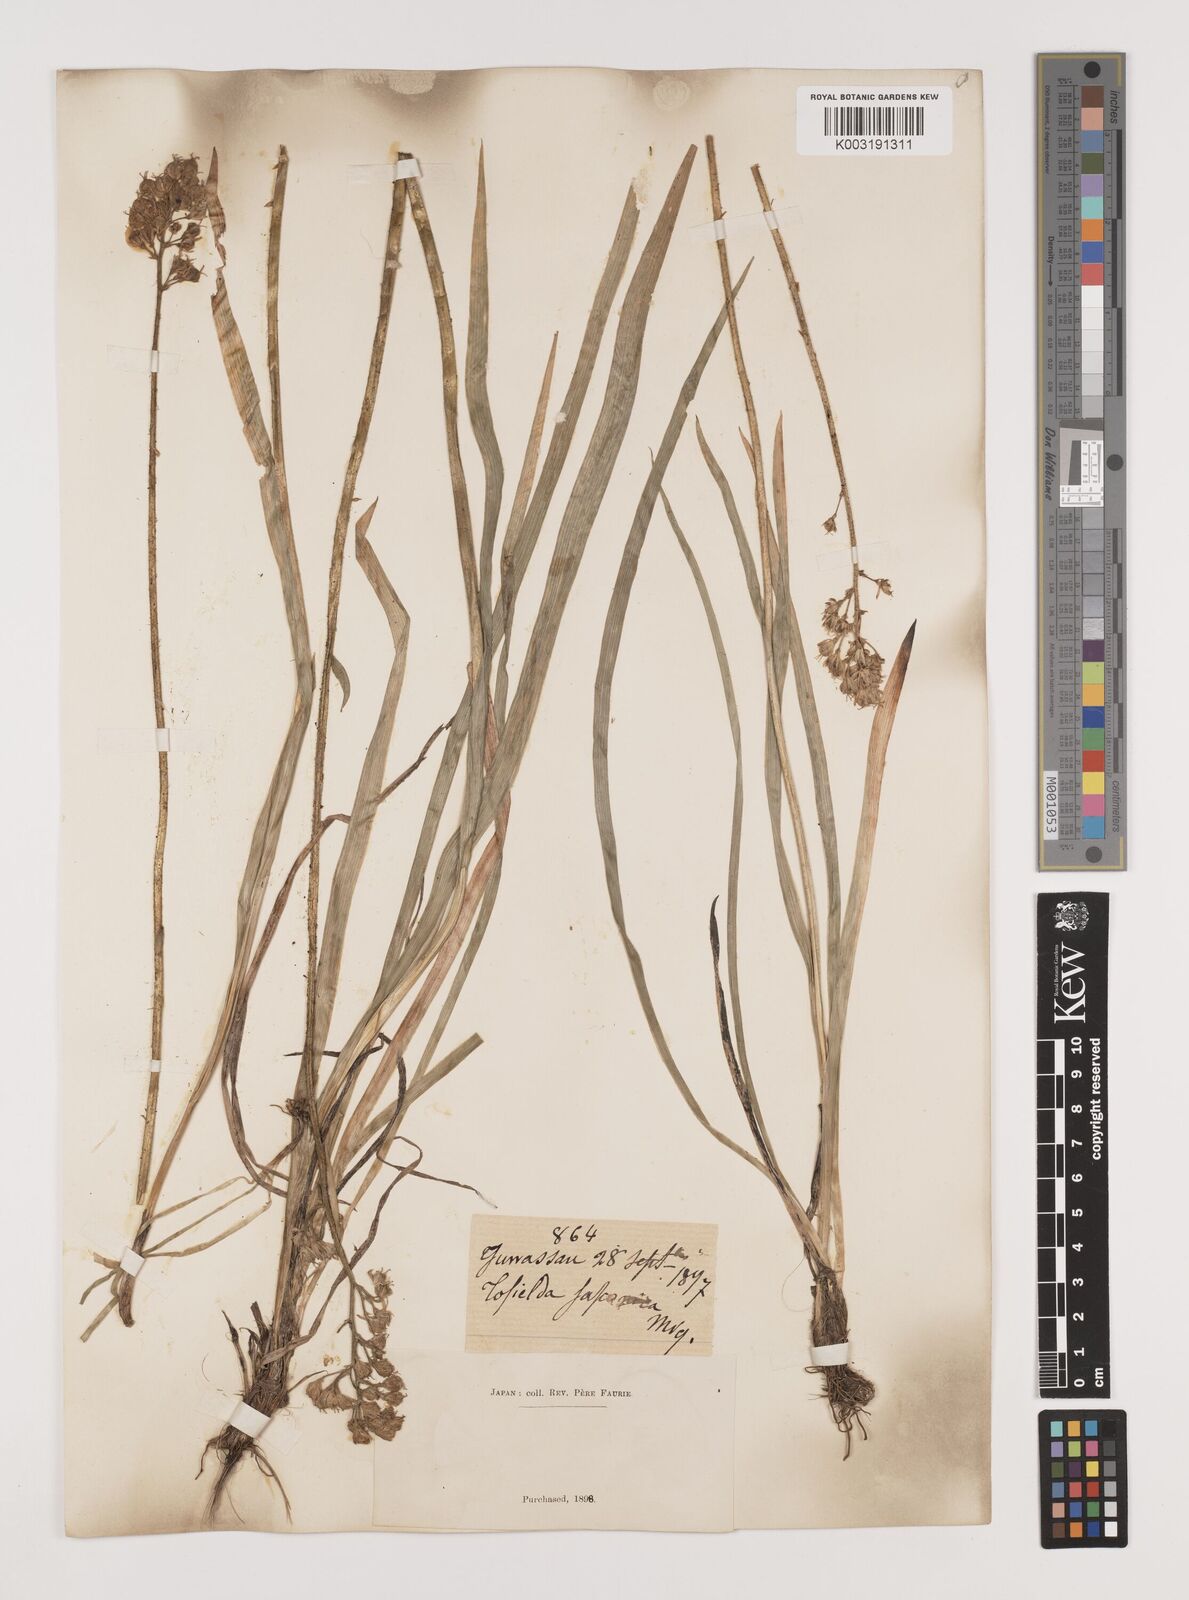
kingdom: Plantae
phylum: Tracheophyta
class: Liliopsida
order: Alismatales
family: Tofieldiaceae
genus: Triantha
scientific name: Triantha japonica
